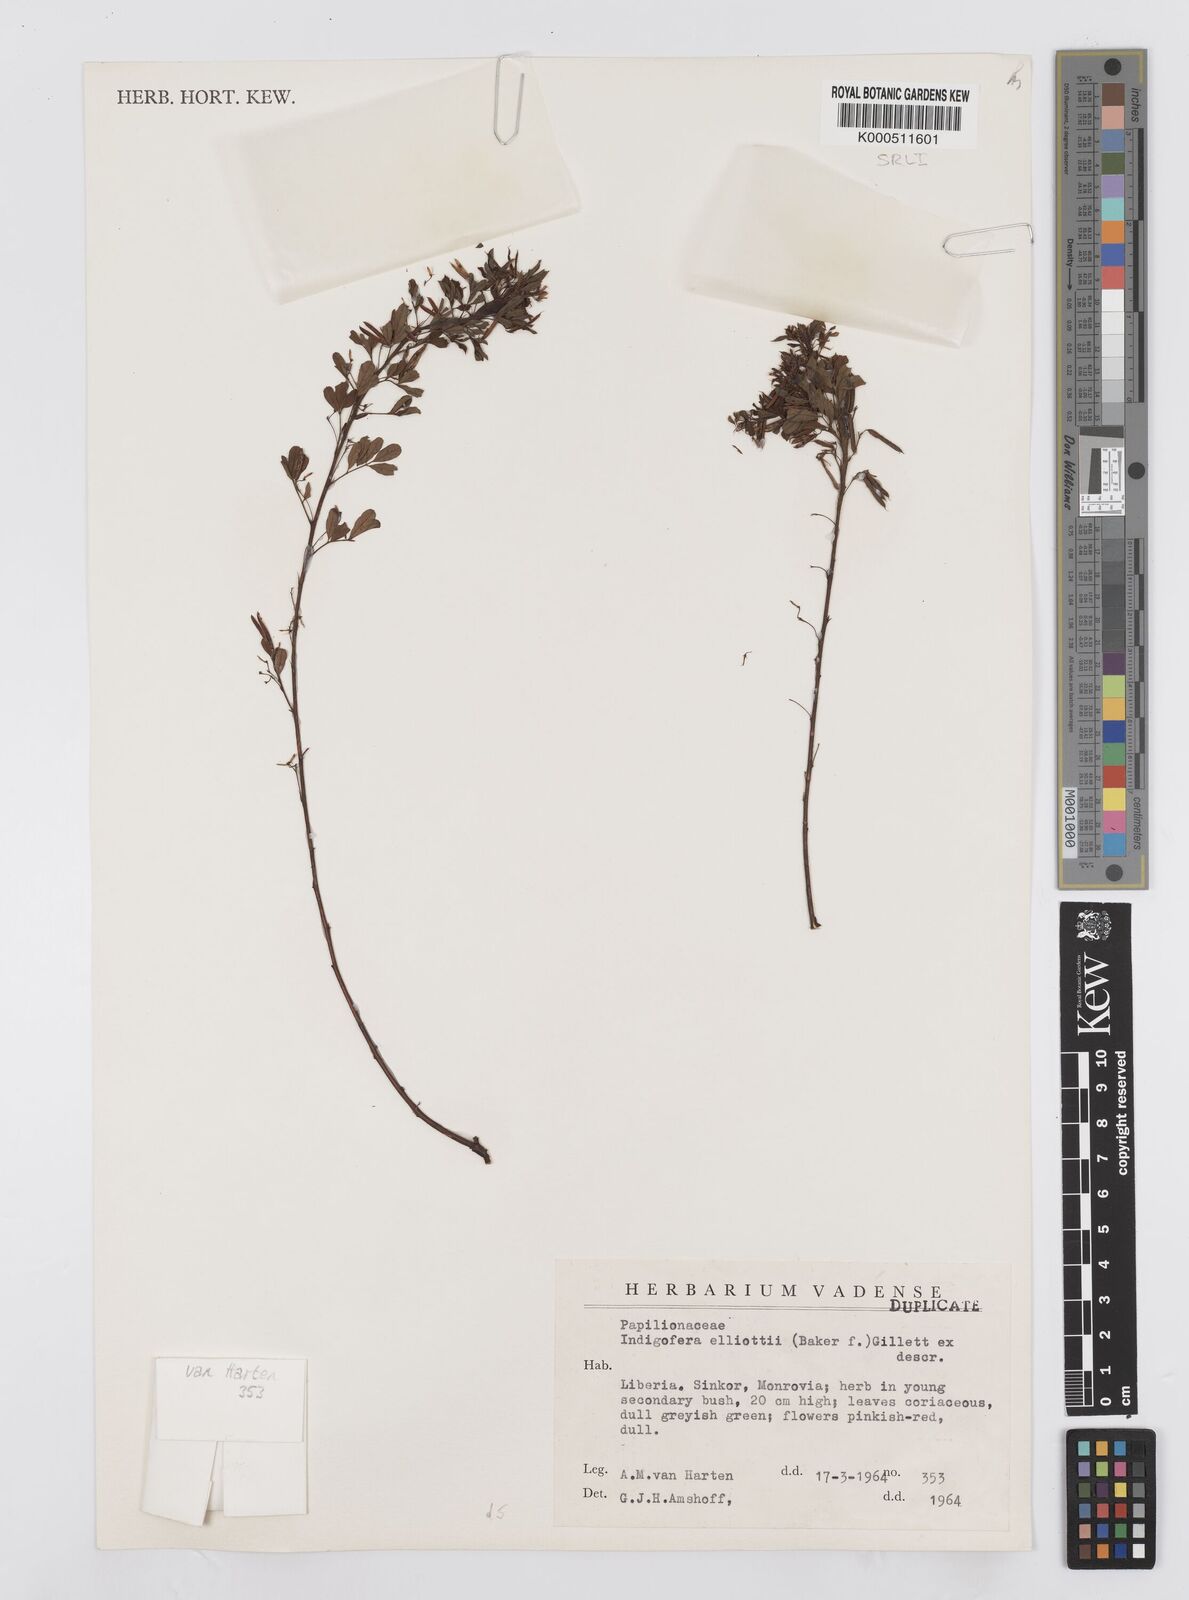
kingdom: Plantae
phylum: Tracheophyta
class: Magnoliopsida
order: Fabales
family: Fabaceae
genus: Indigofera
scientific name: Indigofera elliotii
